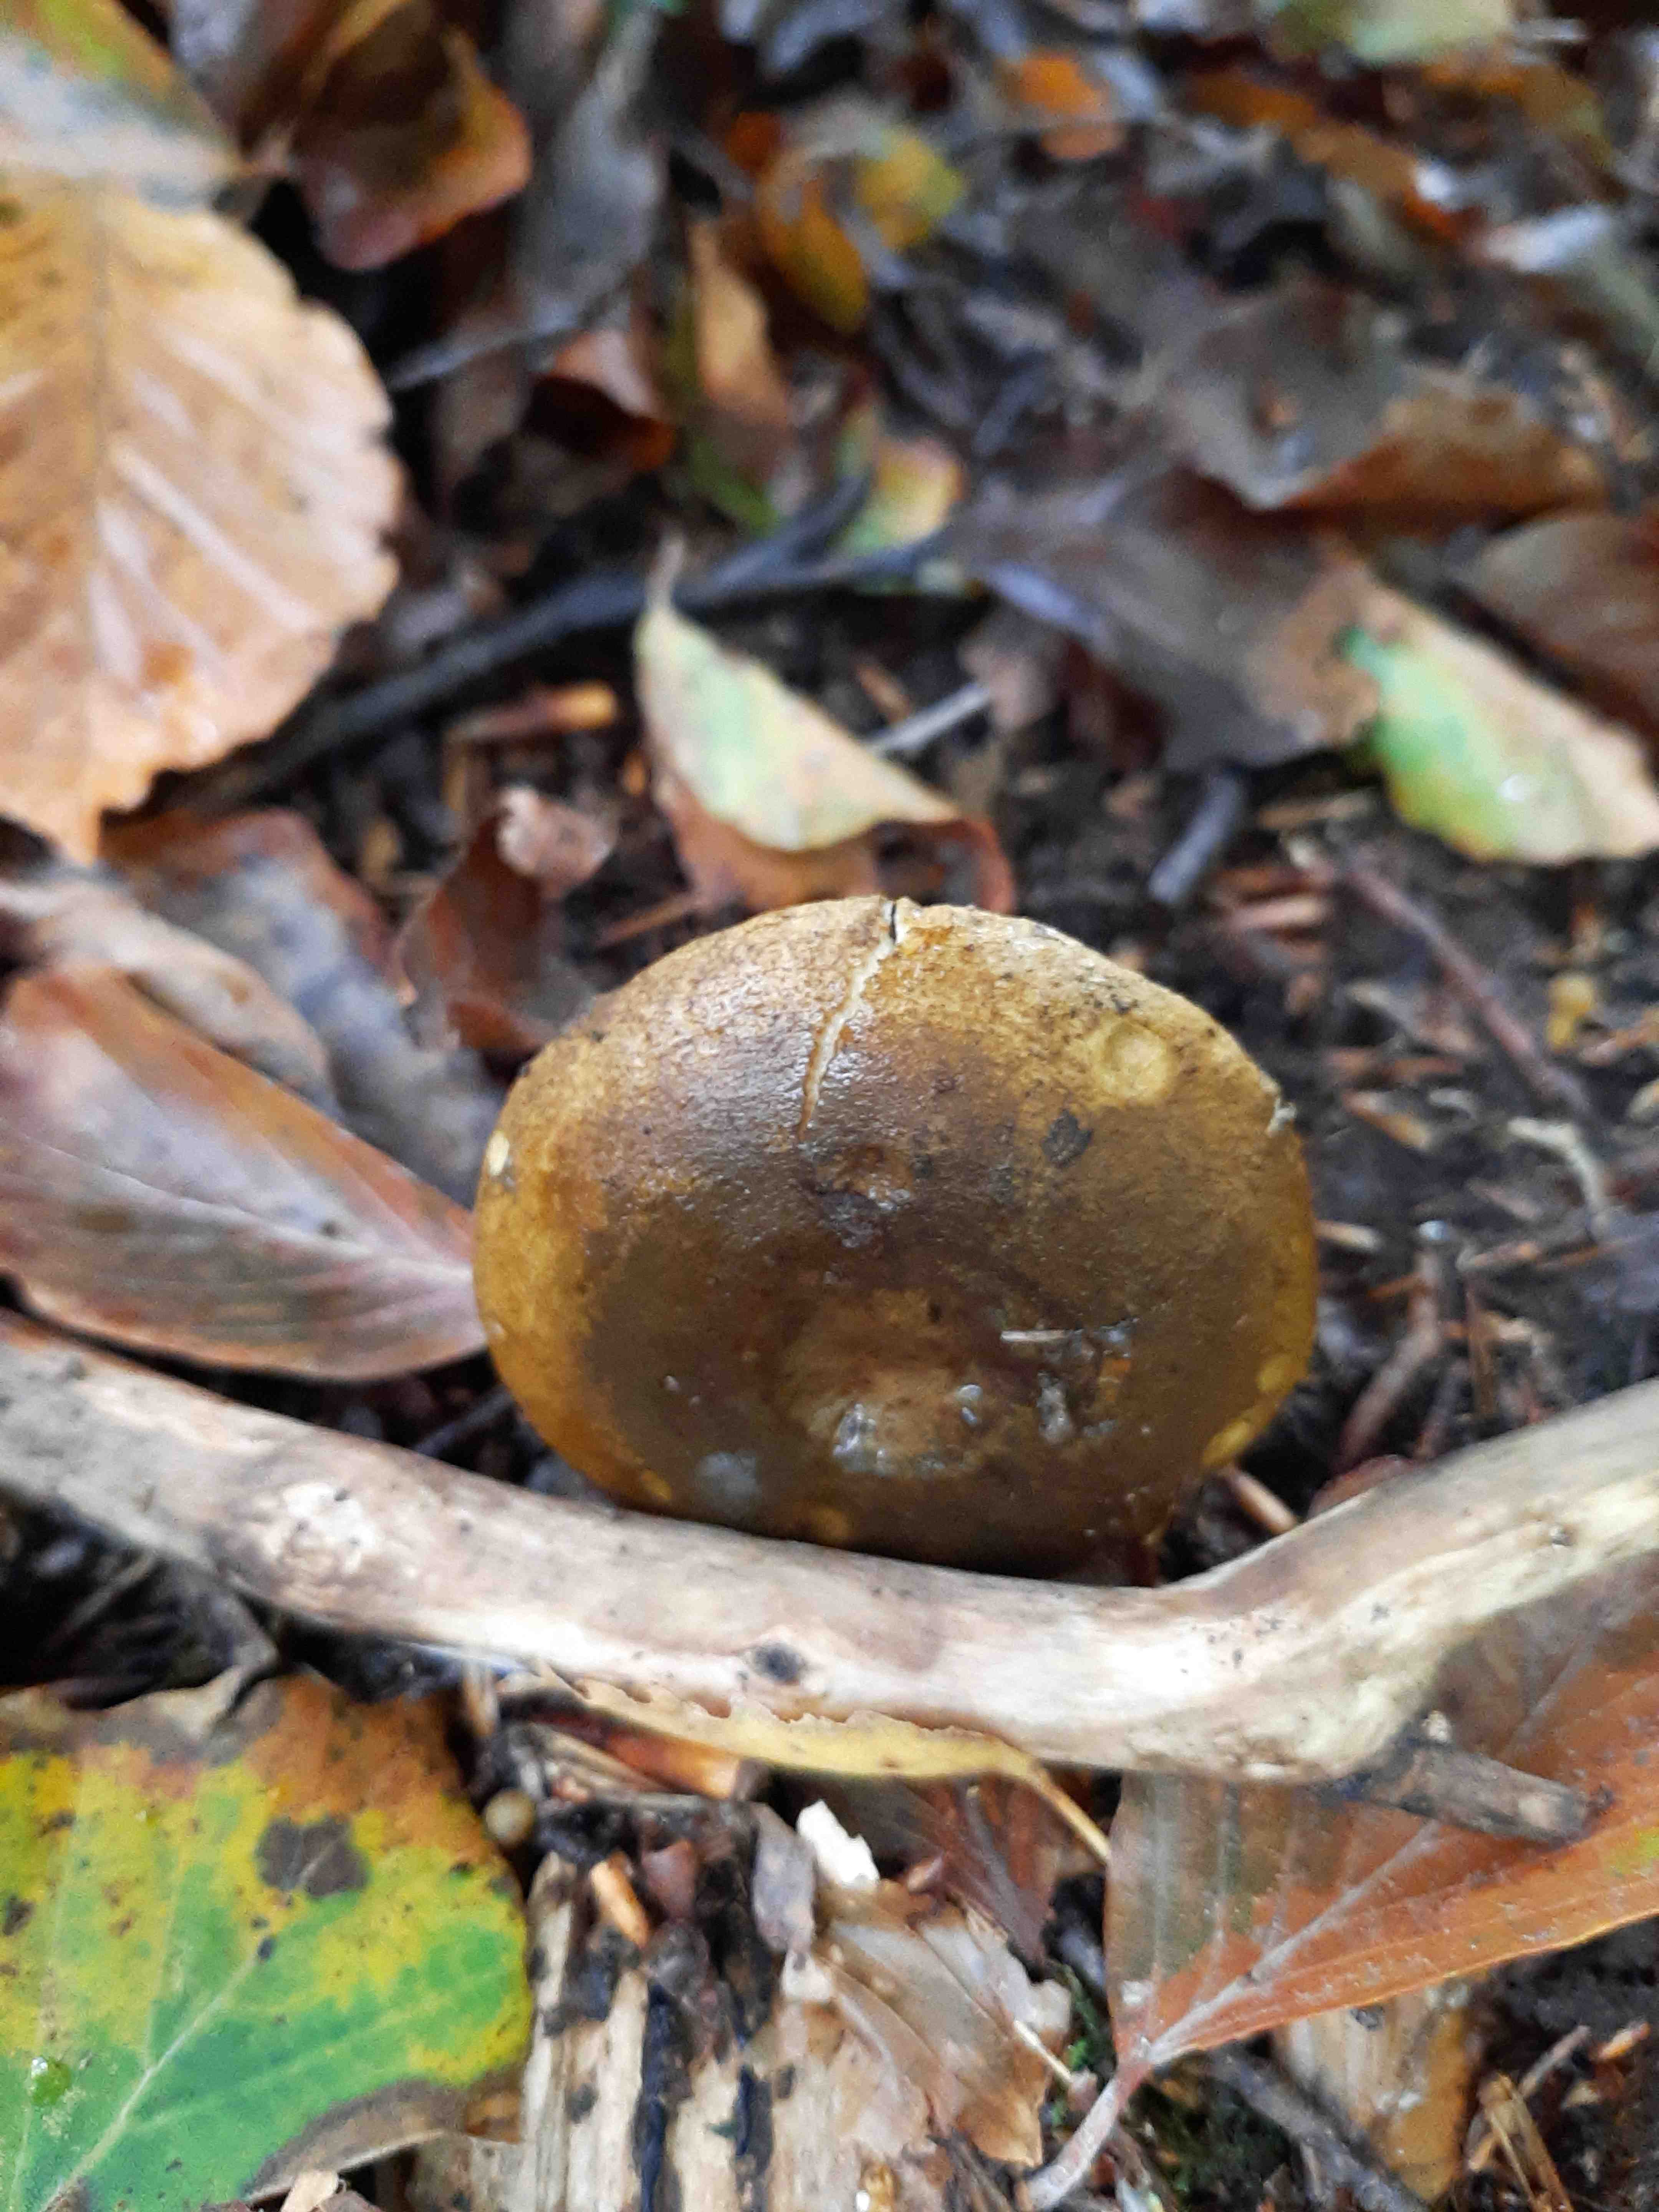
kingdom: Fungi
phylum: Basidiomycota
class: Agaricomycetes
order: Russulales
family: Russulaceae
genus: Lactarius
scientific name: Lactarius necator
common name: manddraber-mælkehat
